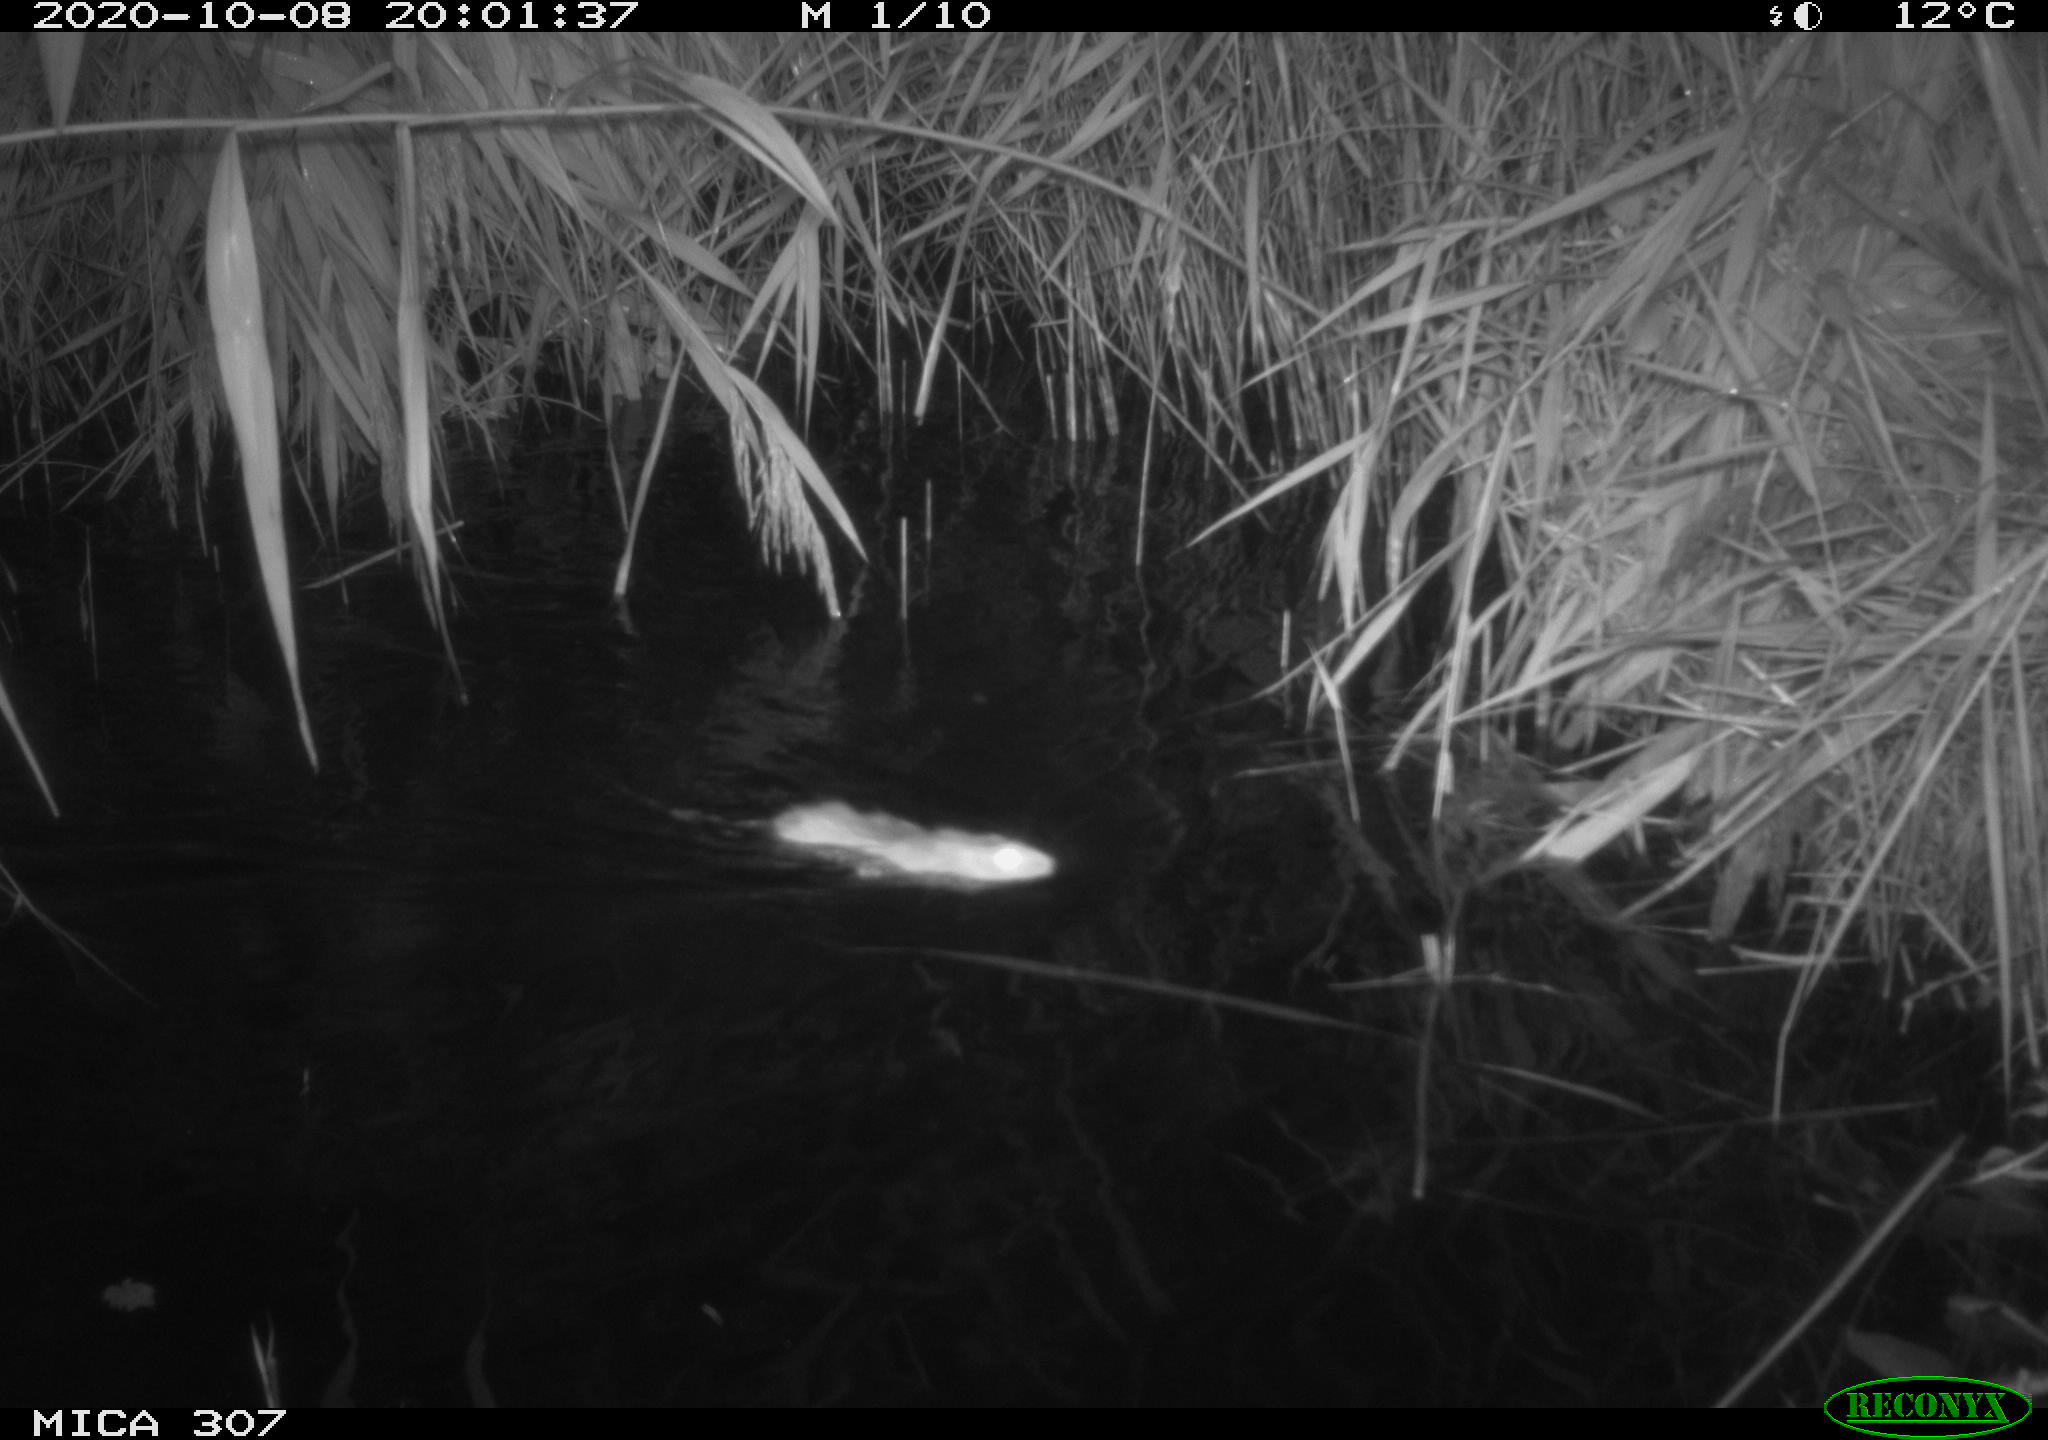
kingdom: Animalia
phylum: Chordata
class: Mammalia
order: Rodentia
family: Muridae
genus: Rattus
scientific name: Rattus norvegicus
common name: Brown rat
